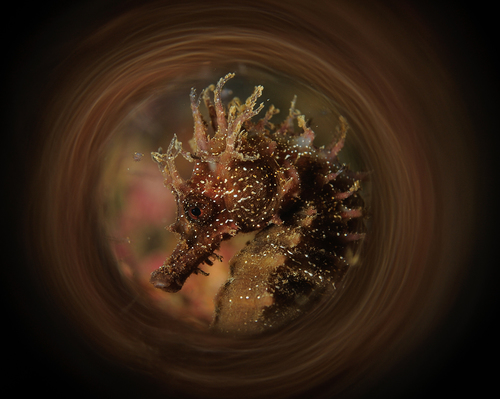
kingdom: Animalia
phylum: Chordata
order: Syngnathiformes
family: Syngnathidae
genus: Hippocampus
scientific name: Hippocampus guttulatus
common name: Long-snouted seahorse
